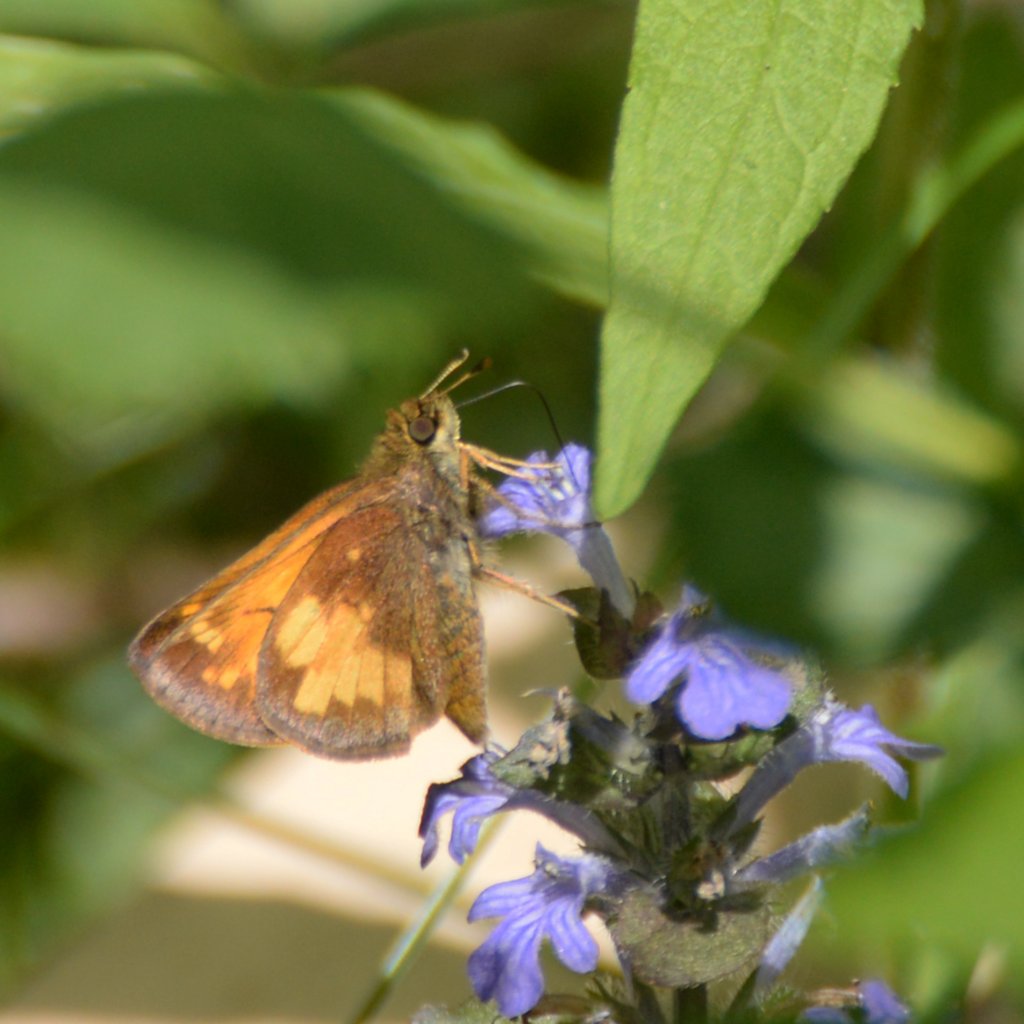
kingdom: Animalia
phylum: Arthropoda
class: Insecta
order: Lepidoptera
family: Hesperiidae
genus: Lon
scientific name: Lon hobomok
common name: Hobomok Skipper
